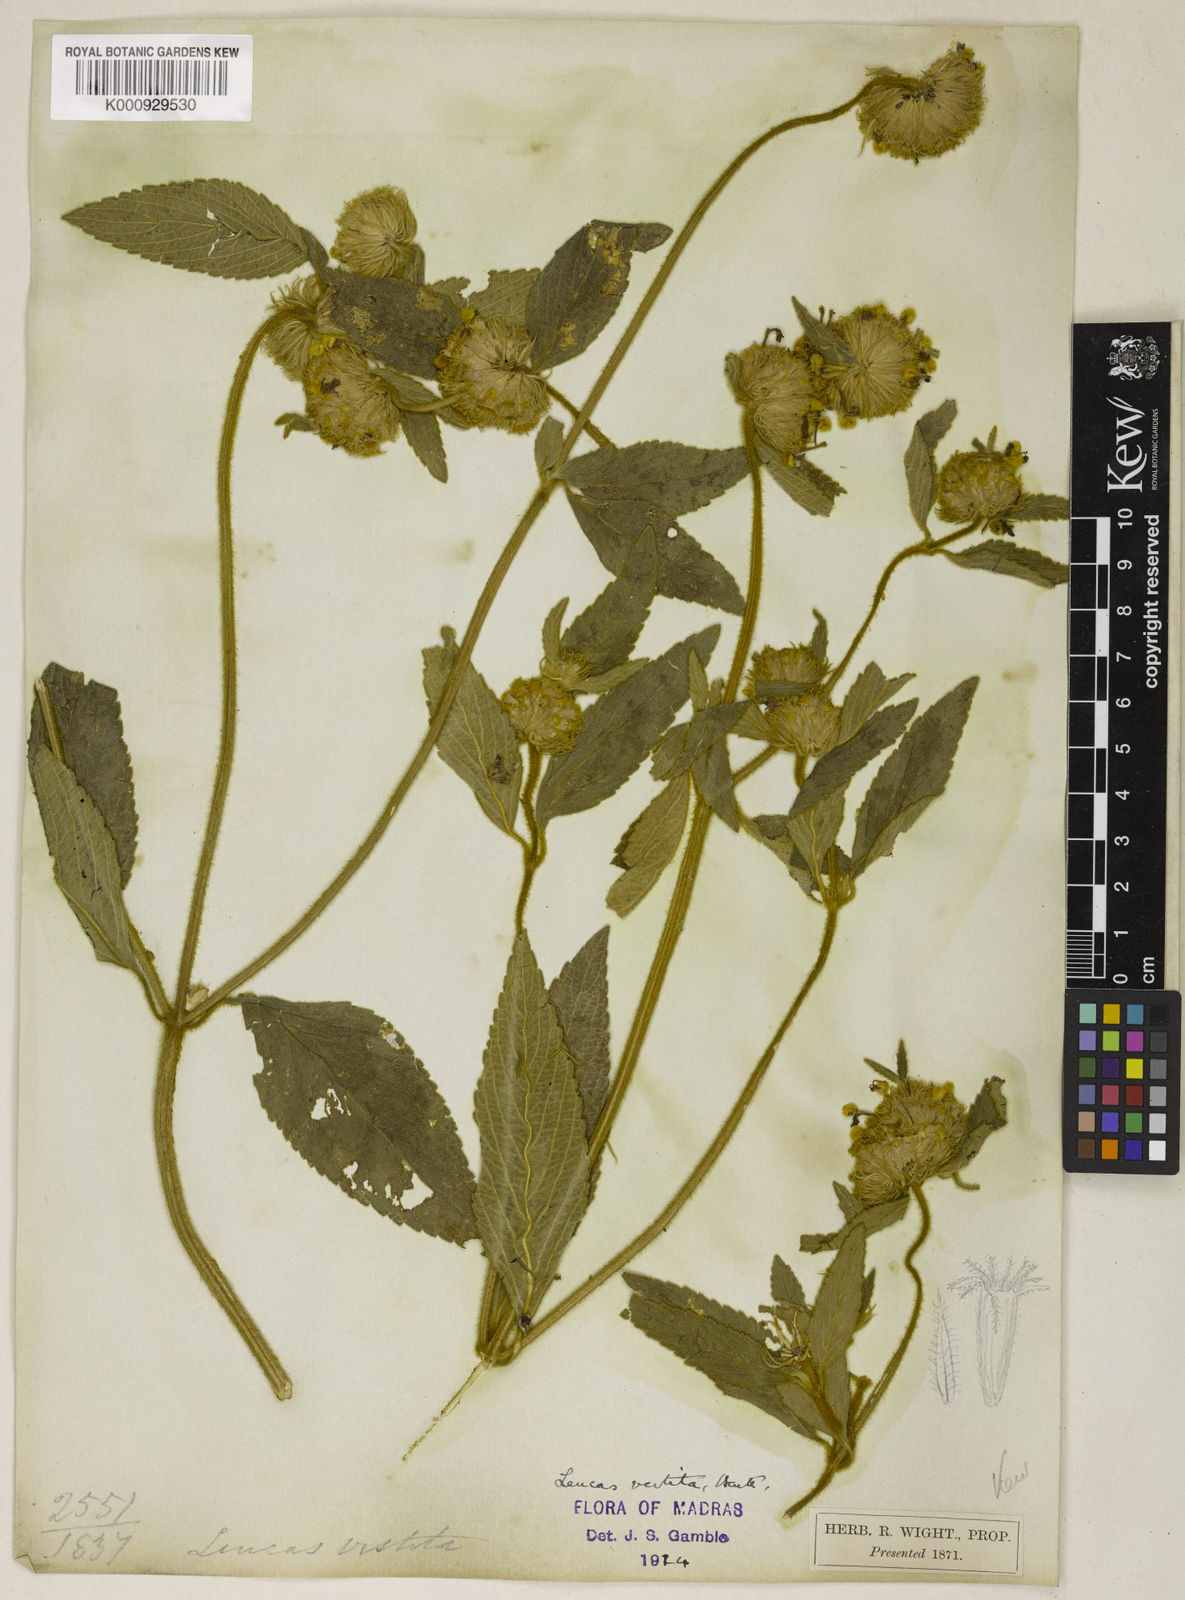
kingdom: Plantae
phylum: Tracheophyta
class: Magnoliopsida
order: Lamiales
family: Lamiaceae
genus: Leucas
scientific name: Leucas vestita
